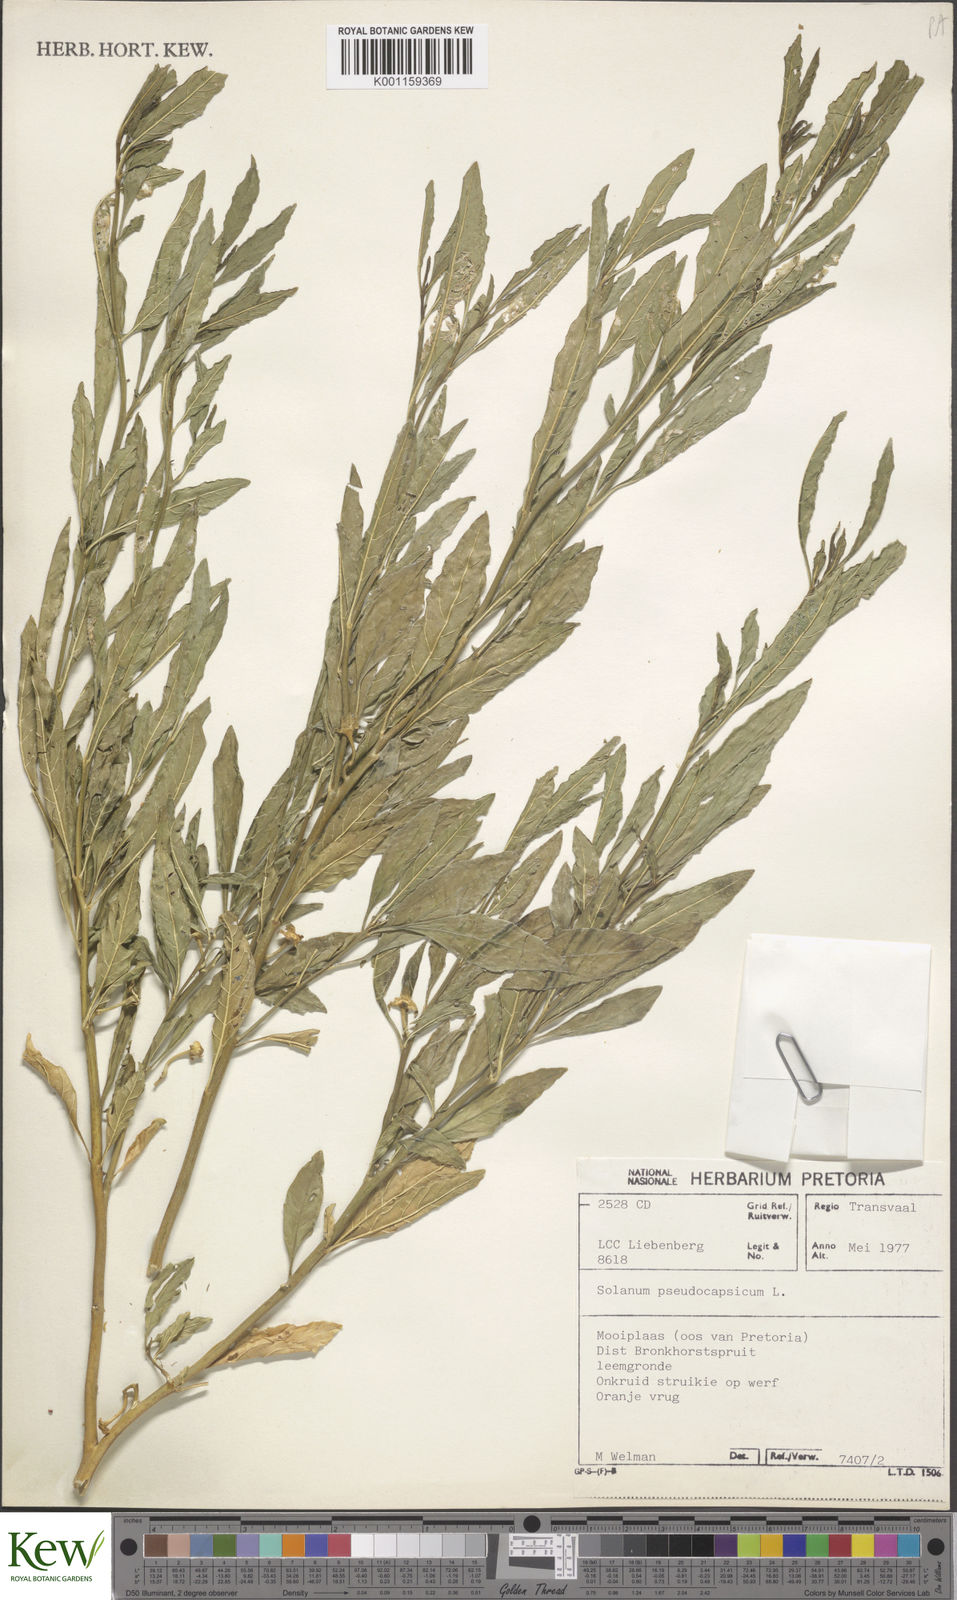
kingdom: Plantae
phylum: Tracheophyta
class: Magnoliopsida
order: Solanales
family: Solanaceae
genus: Solanum
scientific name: Solanum pseudocapsicum
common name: Jerusalem cherry
